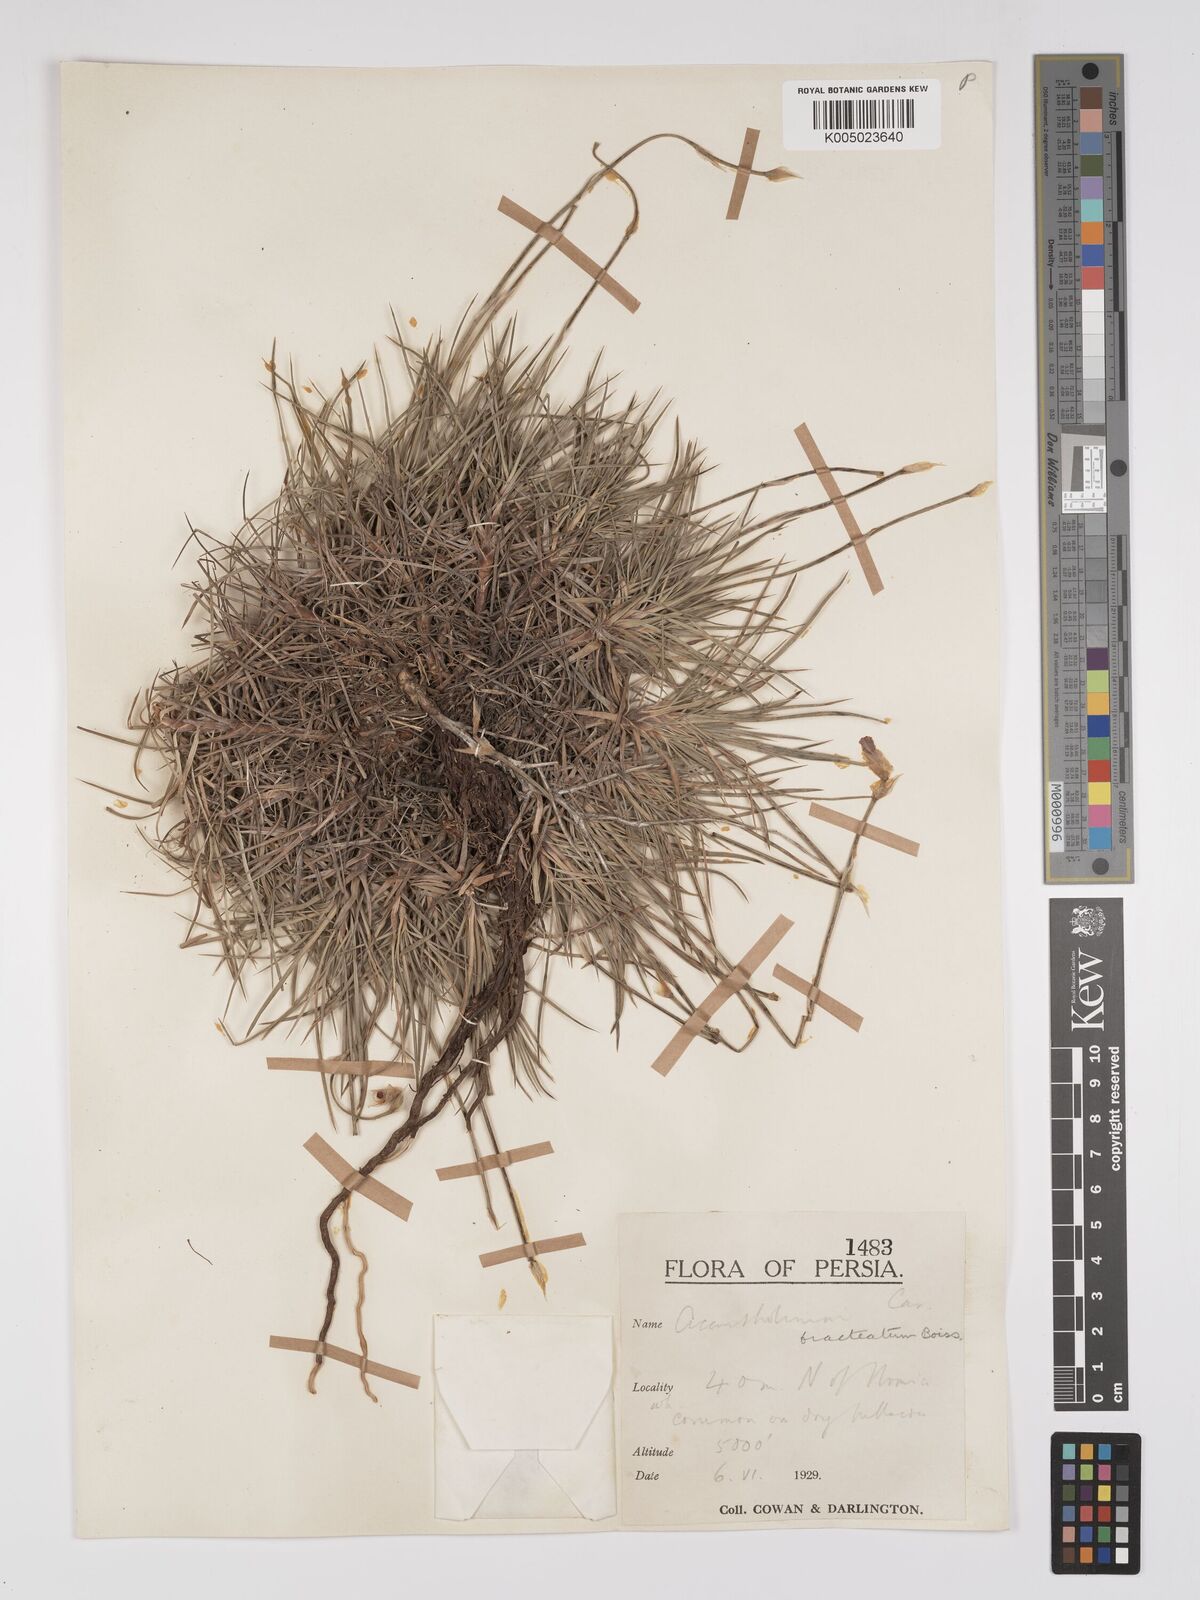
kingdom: Plantae
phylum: Tracheophyta
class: Magnoliopsida
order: Caryophyllales
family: Plumbaginaceae
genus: Acantholimon
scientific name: Acantholimon bracteatum
